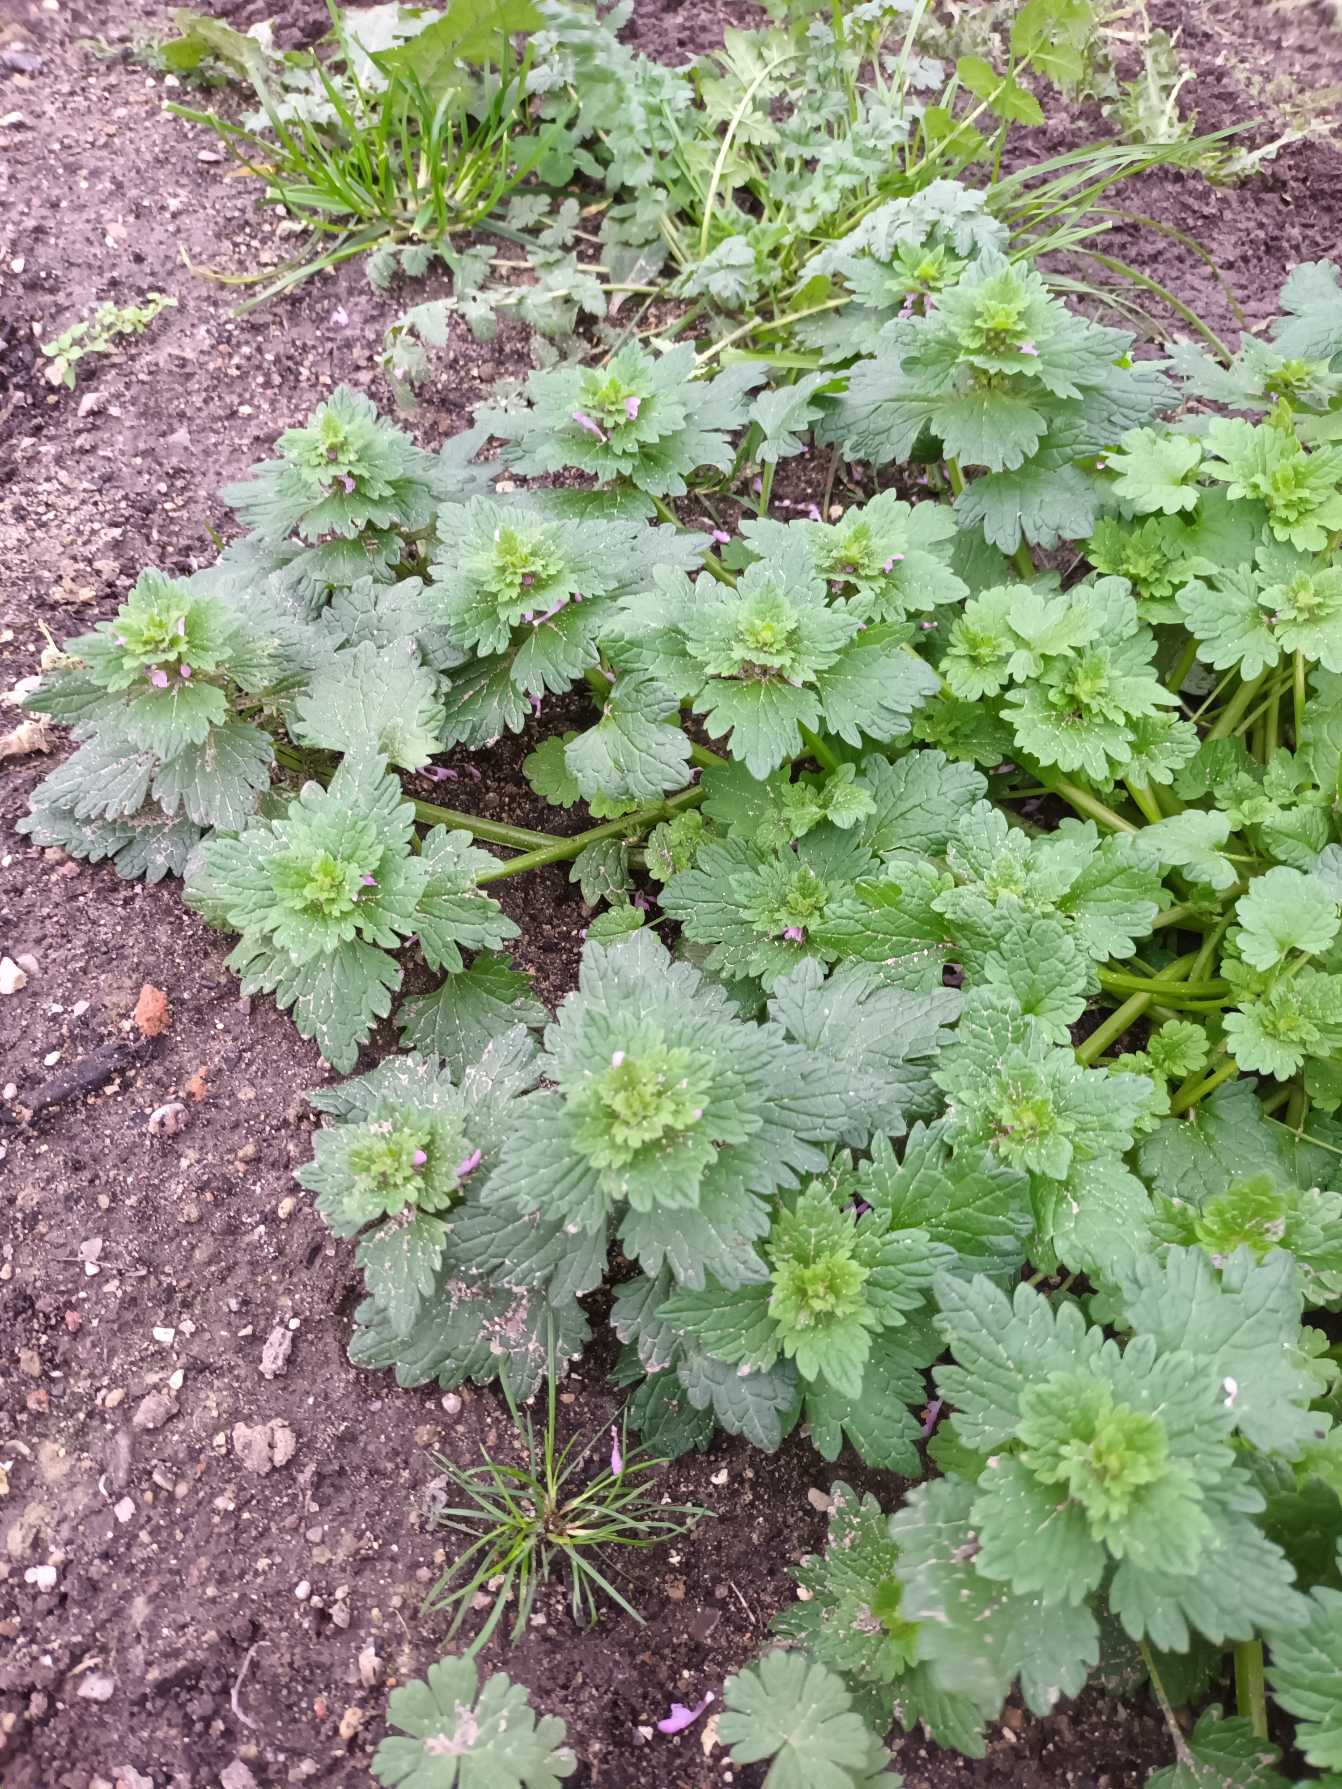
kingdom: Plantae
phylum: Tracheophyta
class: Magnoliopsida
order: Lamiales
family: Lamiaceae
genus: Lamium
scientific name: Lamium hybridum
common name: Fliget tvetand
